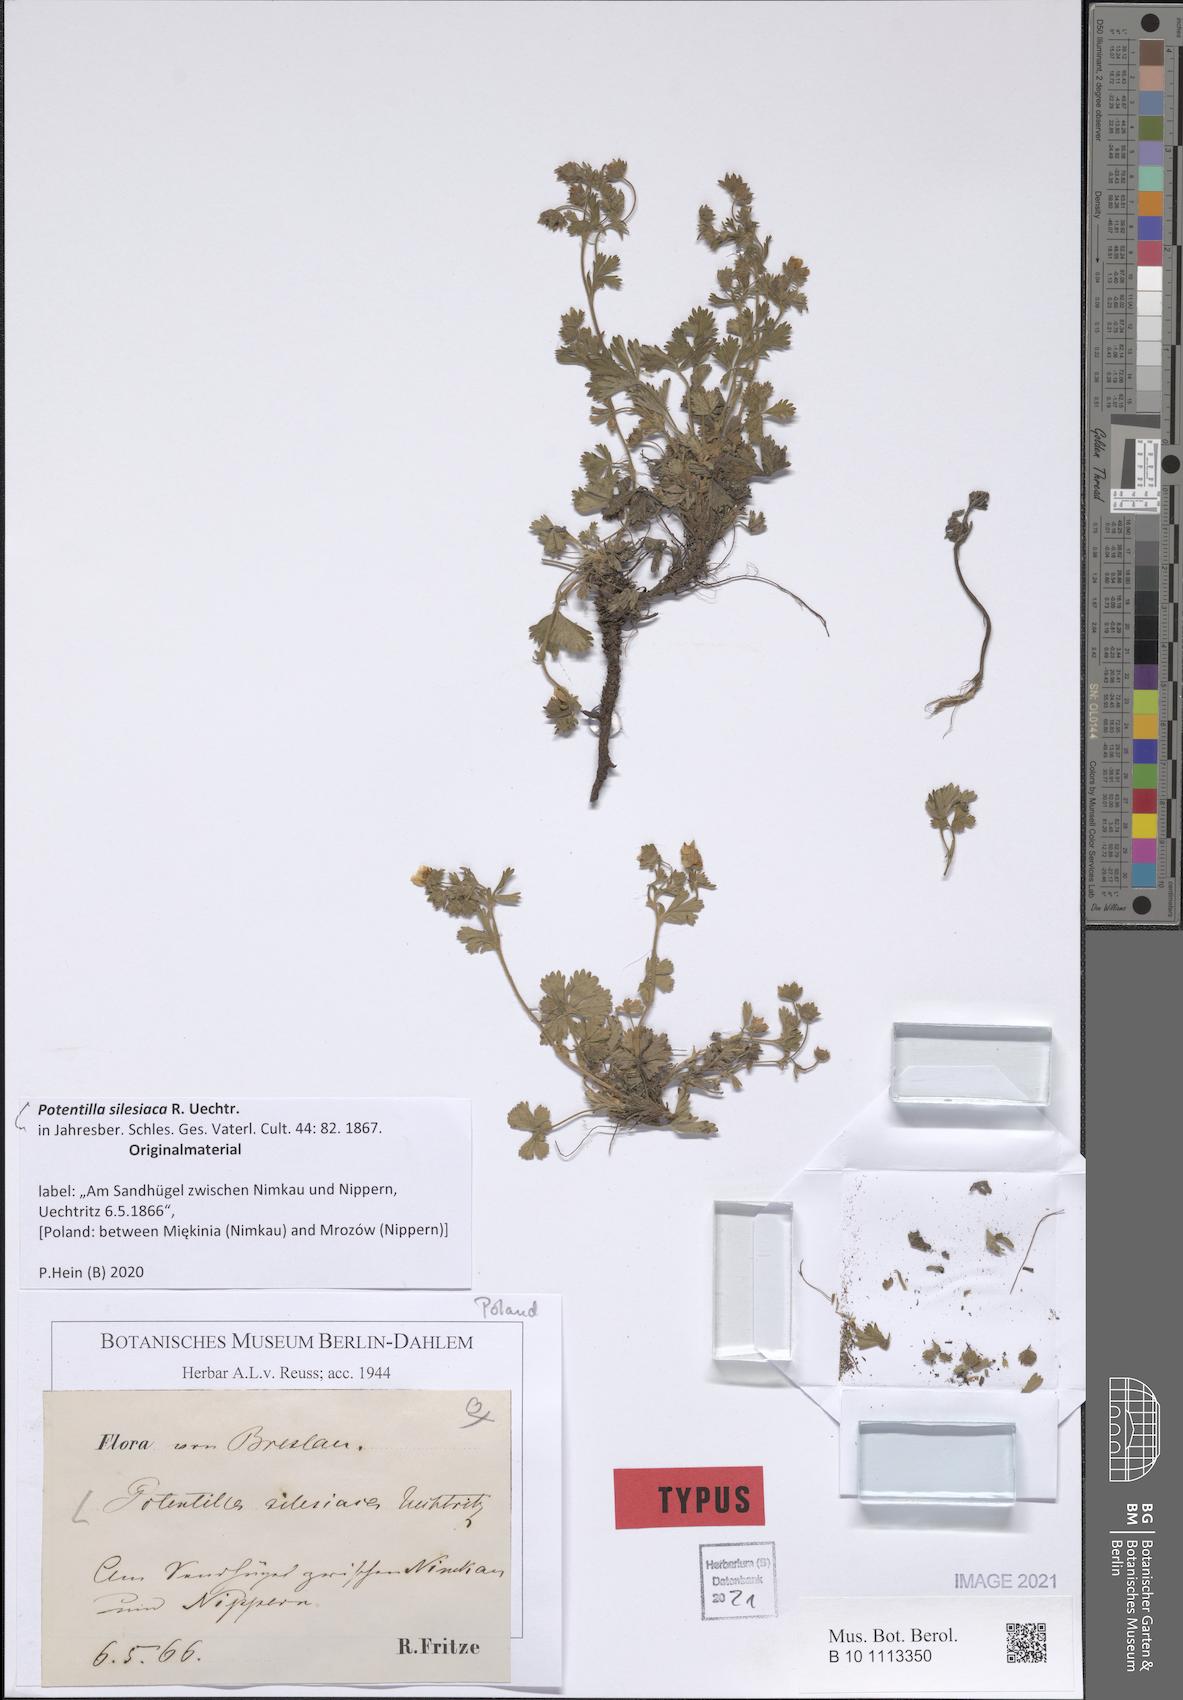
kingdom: Plantae
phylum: Tracheophyta
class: Magnoliopsida
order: Rosales
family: Rosaceae
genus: Potentilla
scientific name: Potentilla silesiaca
